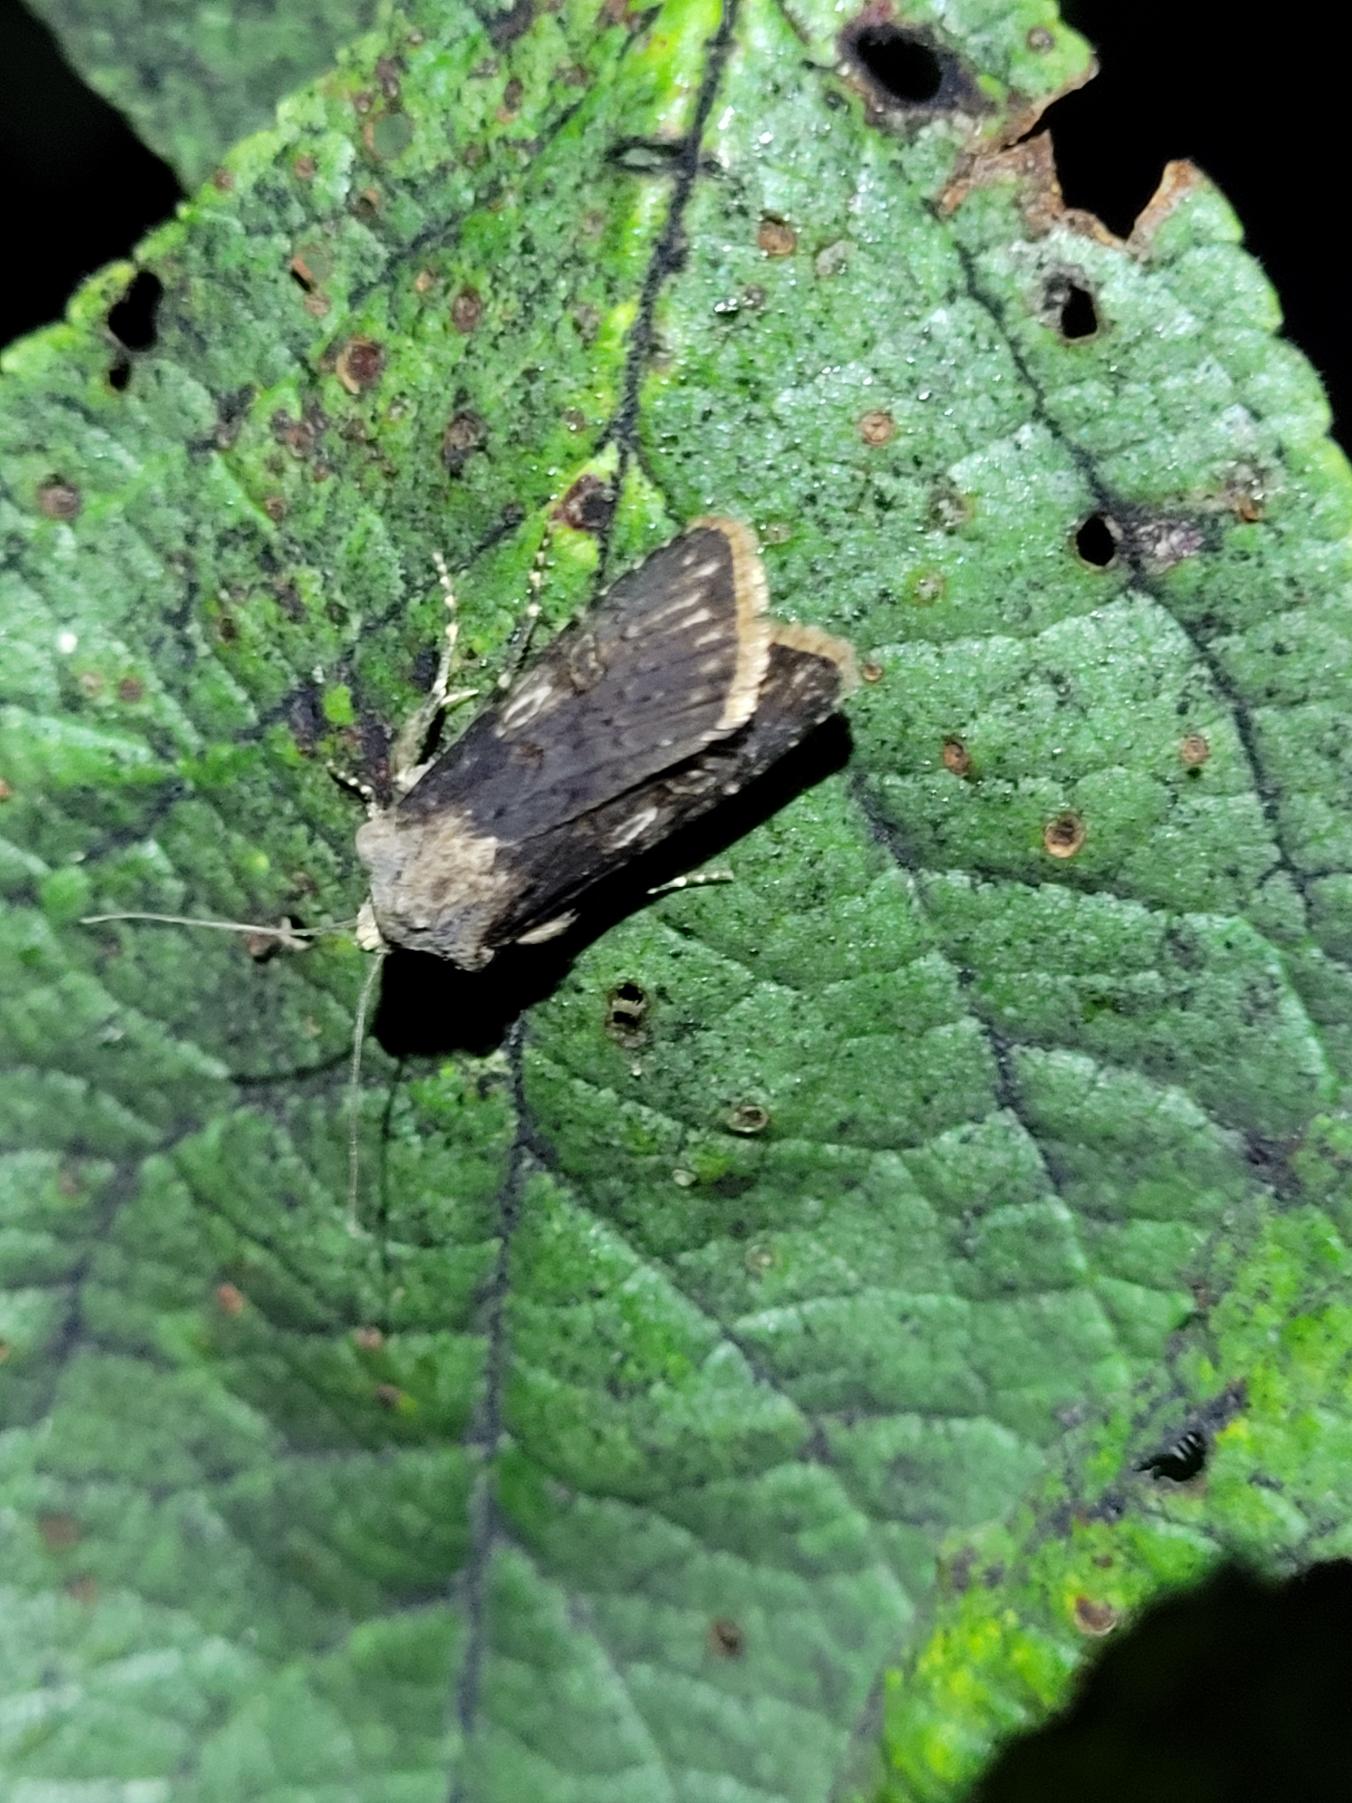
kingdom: Animalia
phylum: Arthropoda
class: Insecta
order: Lepidoptera
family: Noctuidae
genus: Agrotis
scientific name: Agrotis puta
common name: Frønnet landmand
